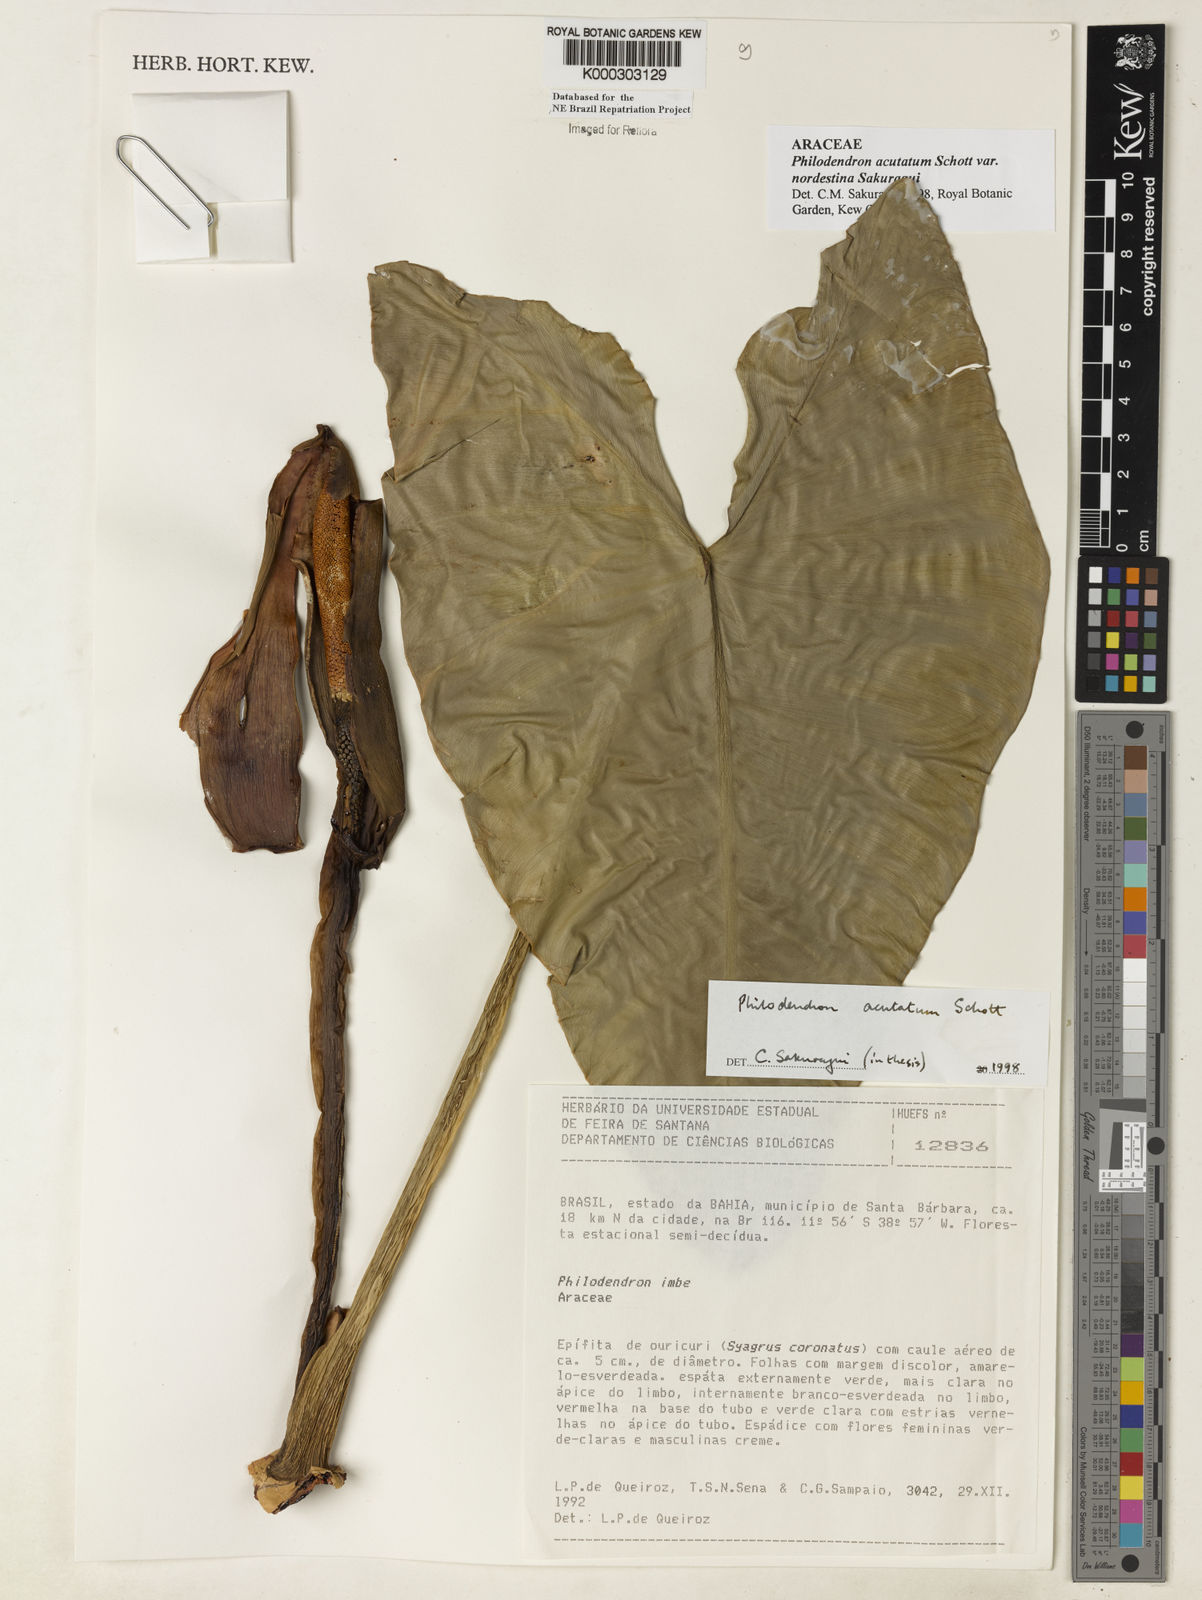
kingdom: Plantae
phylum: Tracheophyta
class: Liliopsida
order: Alismatales
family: Araceae
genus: Philodendron
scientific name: Philodendron quinquenervium
